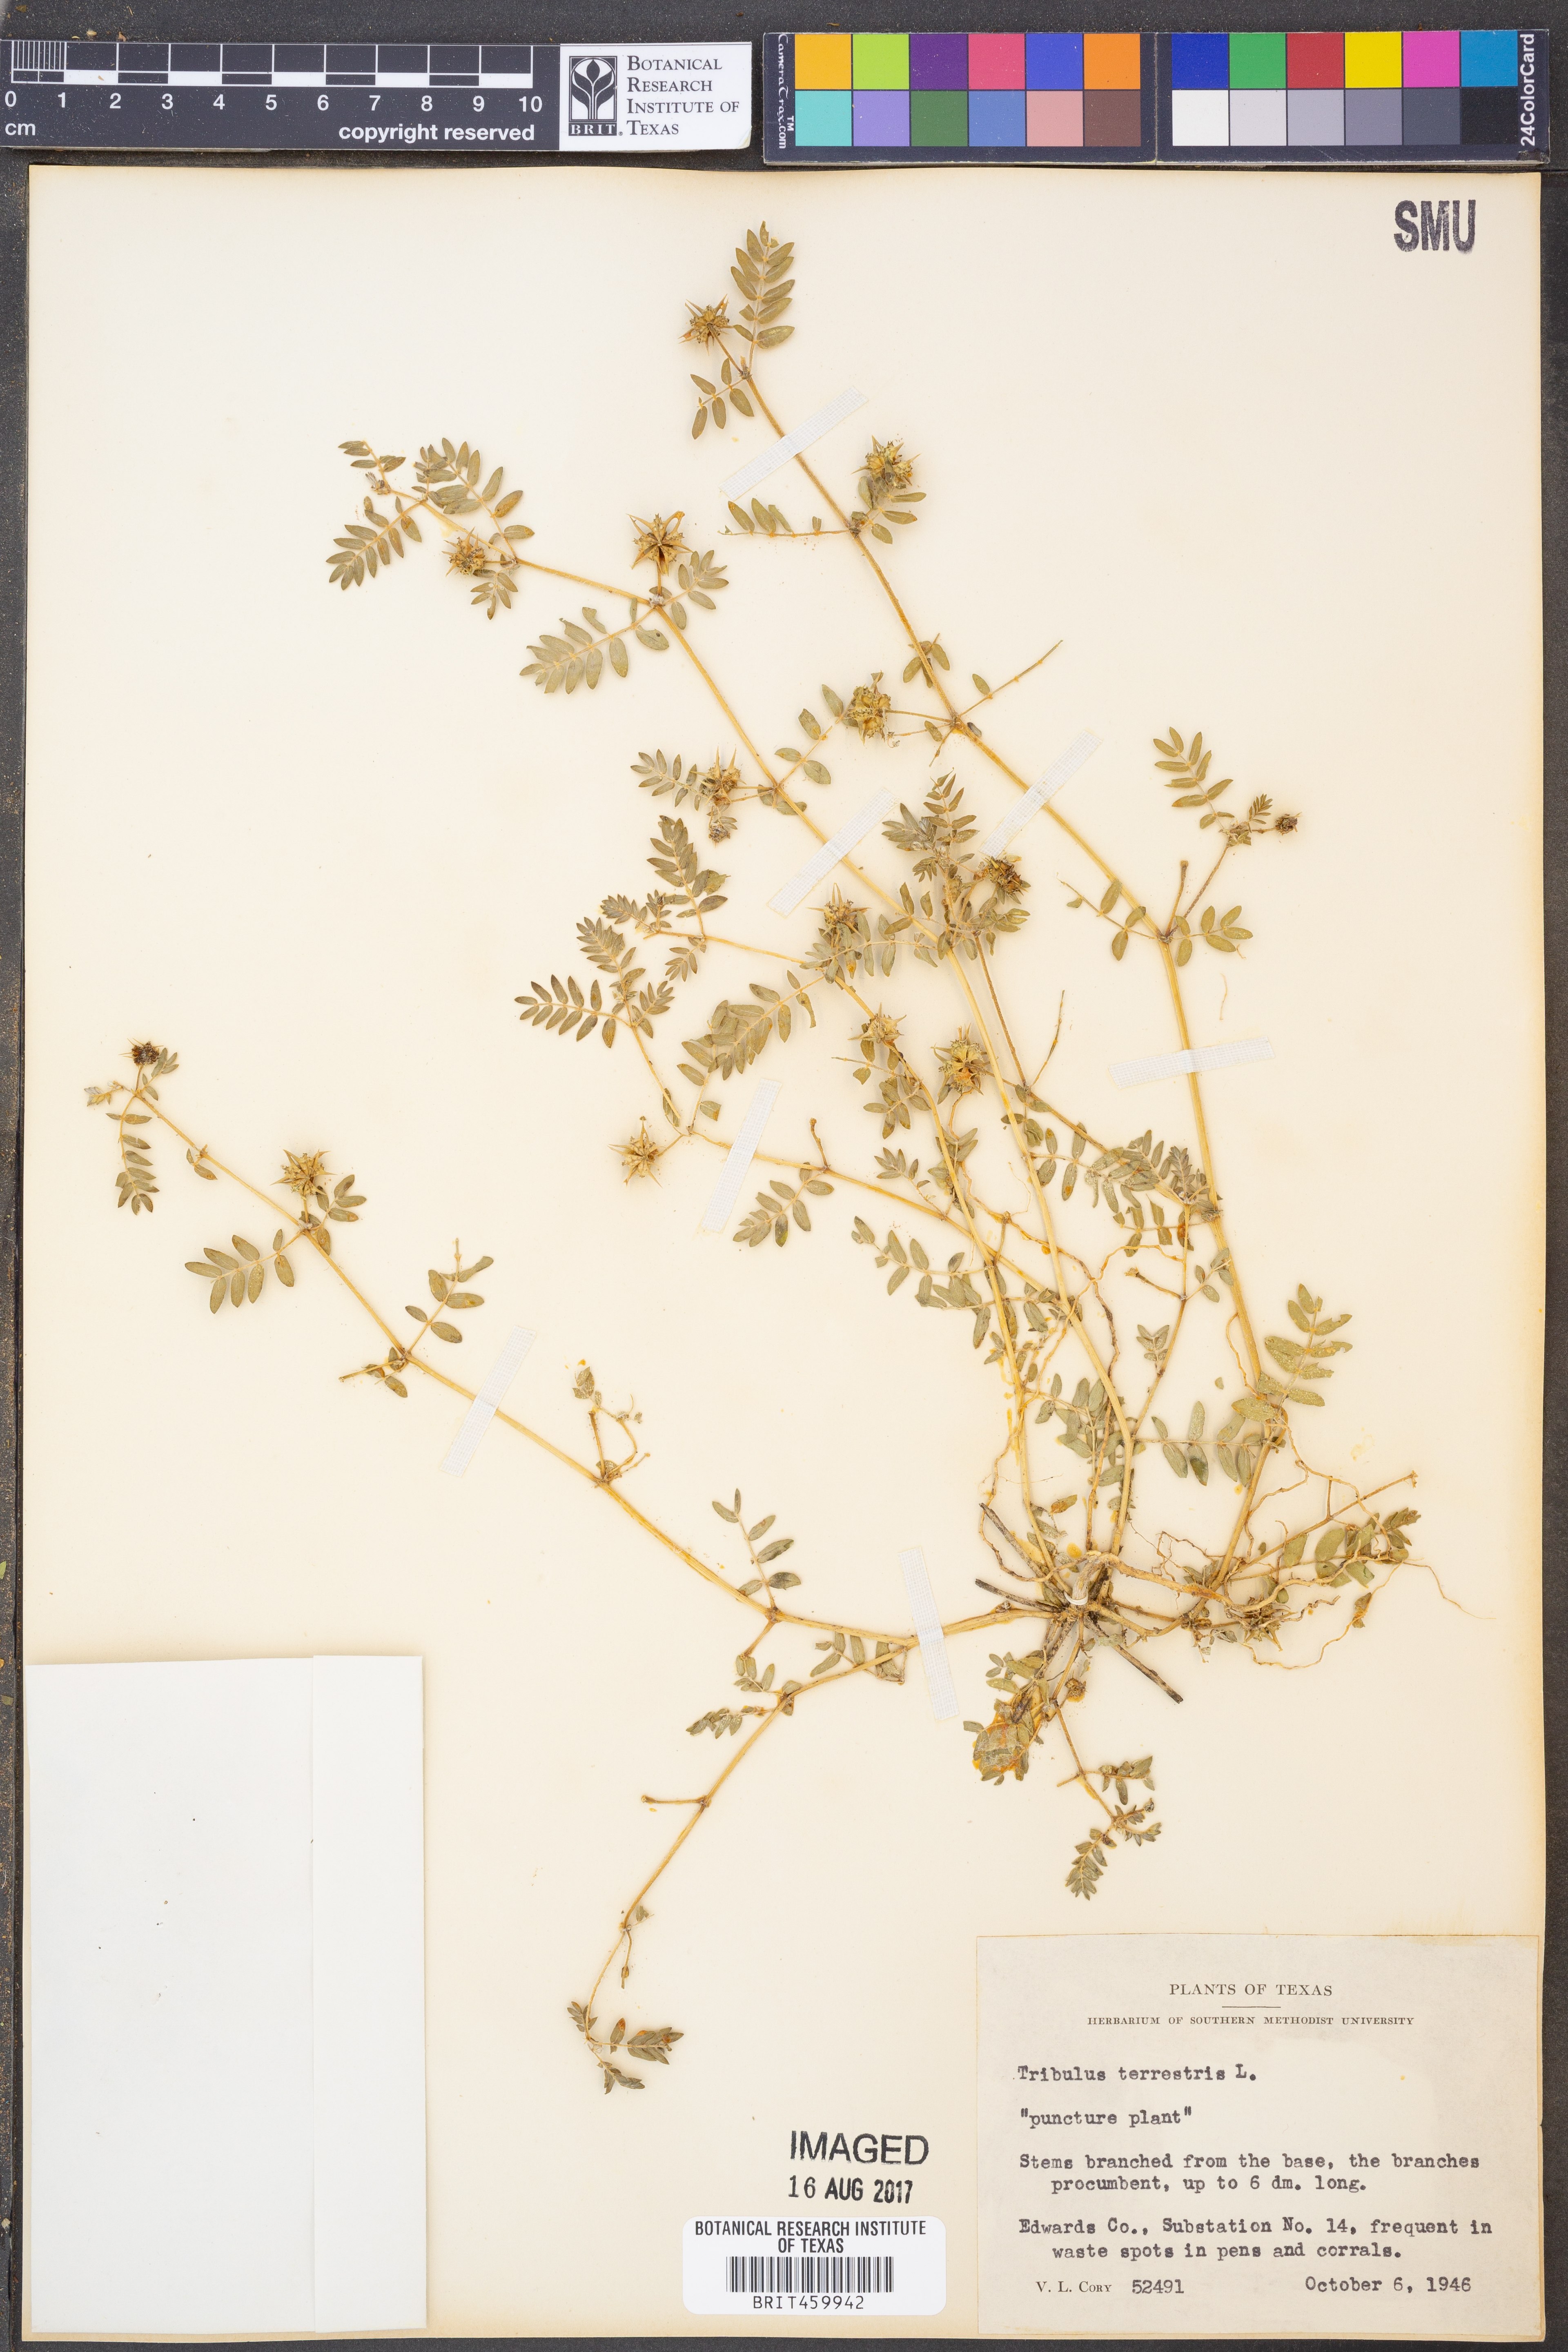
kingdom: Plantae
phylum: Tracheophyta
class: Magnoliopsida
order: Zygophyllales
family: Zygophyllaceae
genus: Tribulus
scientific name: Tribulus terrestris
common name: Puncturevine
